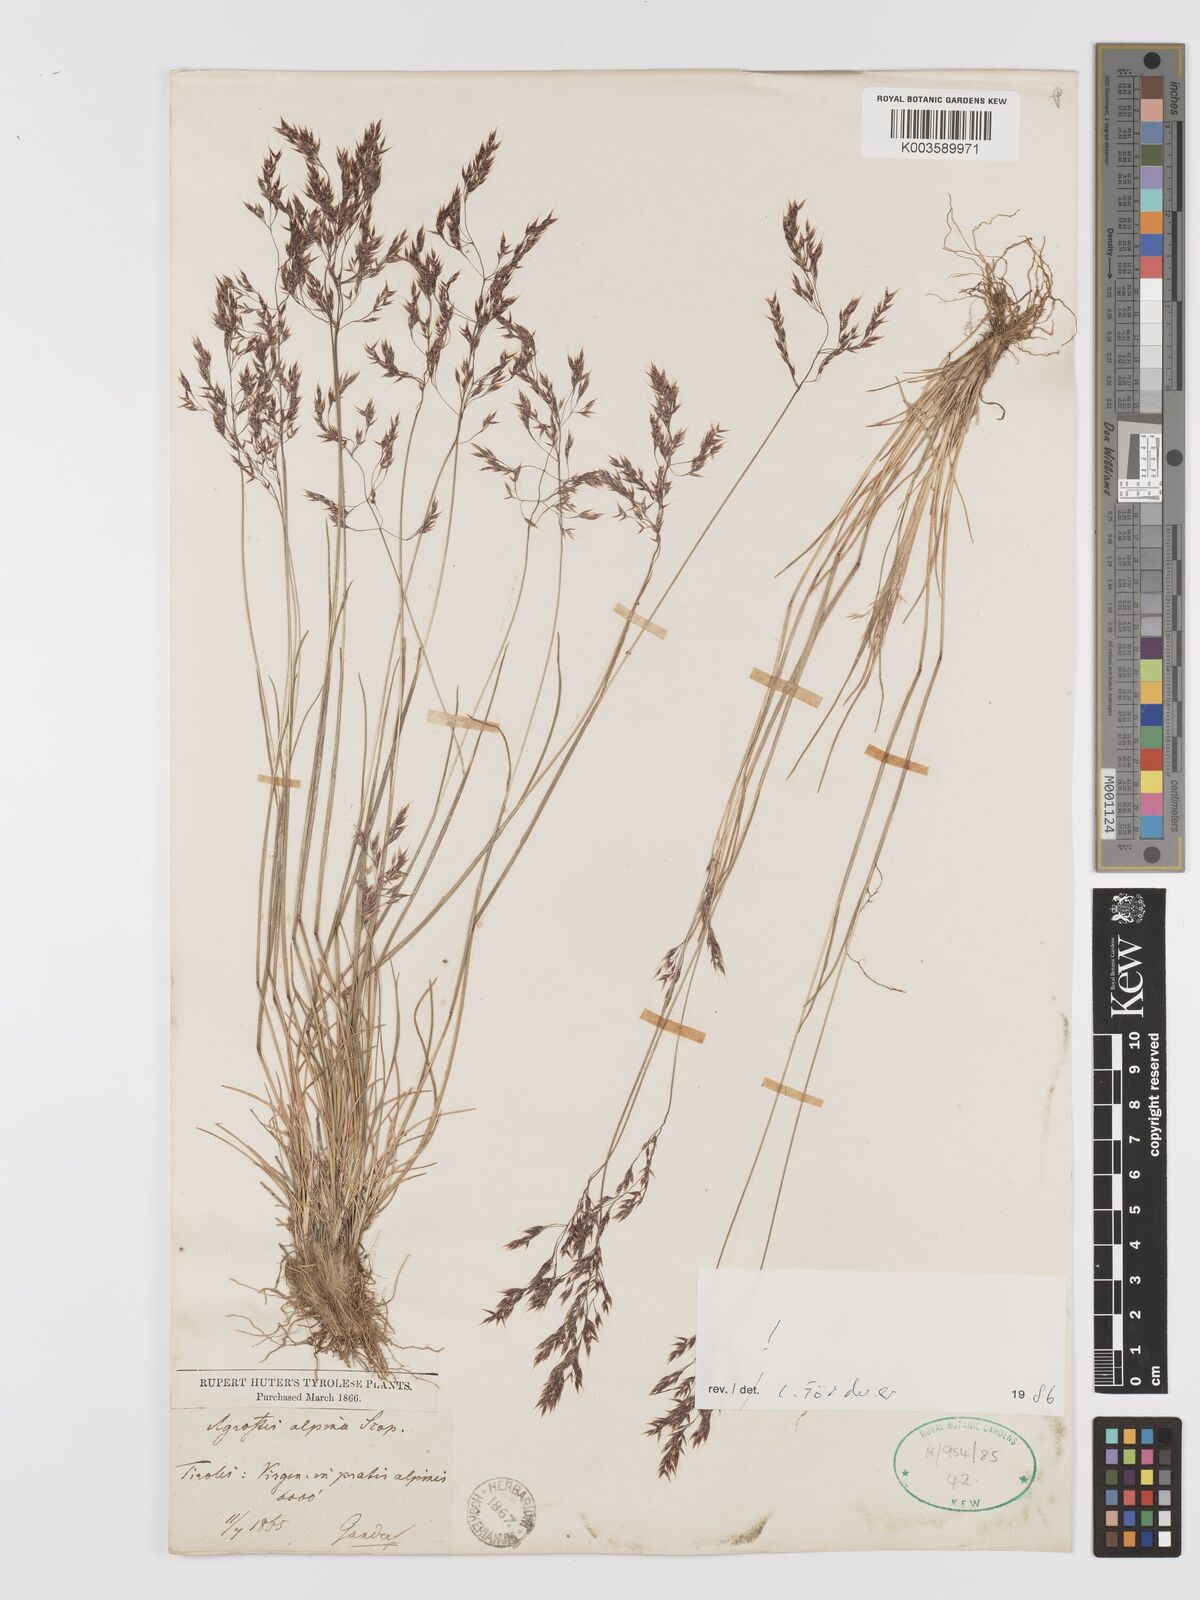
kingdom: Plantae
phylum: Tracheophyta
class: Liliopsida
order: Poales
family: Poaceae
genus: Alpagrostis
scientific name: Alpagrostis alpina
